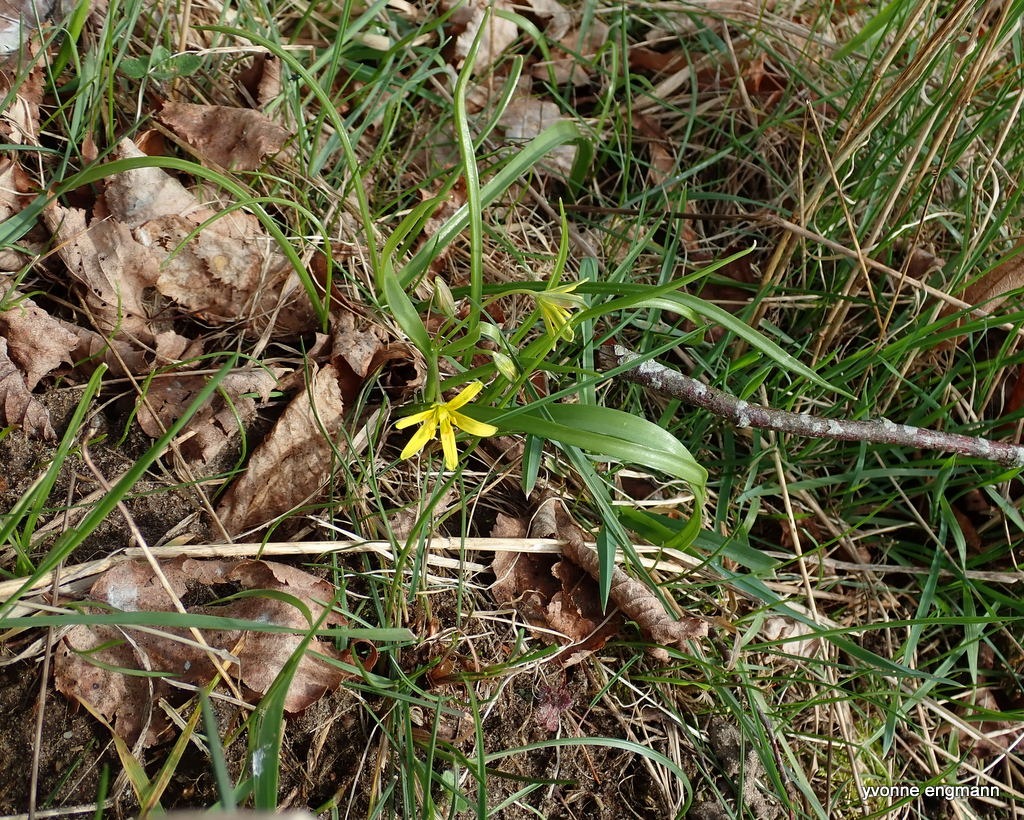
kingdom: Plantae
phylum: Tracheophyta
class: Liliopsida
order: Liliales
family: Liliaceae
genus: Gagea
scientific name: Gagea lutea
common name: Almindelig guldstjerne
